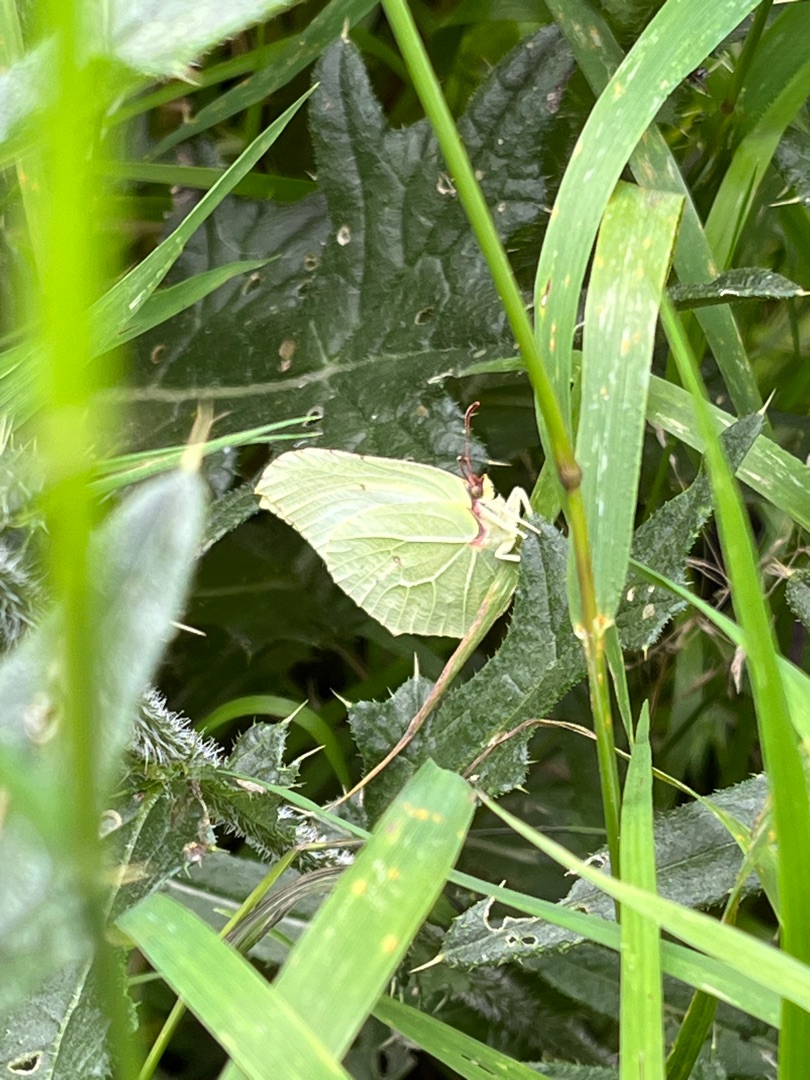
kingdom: Animalia
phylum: Arthropoda
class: Insecta
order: Lepidoptera
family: Pieridae
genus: Gonepteryx
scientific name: Gonepteryx rhamni
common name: Citronsommerfugl
